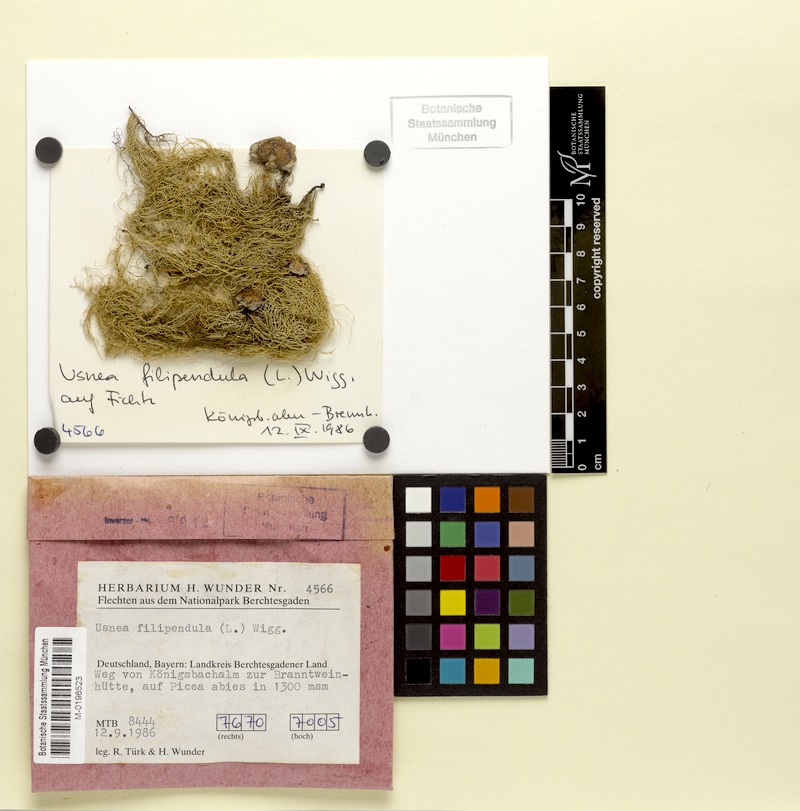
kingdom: Fungi
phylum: Ascomycota
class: Lecanoromycetes
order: Lecanorales
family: Parmeliaceae
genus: Usnea
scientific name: Usnea filipendula
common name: Fishbone beard lichen
